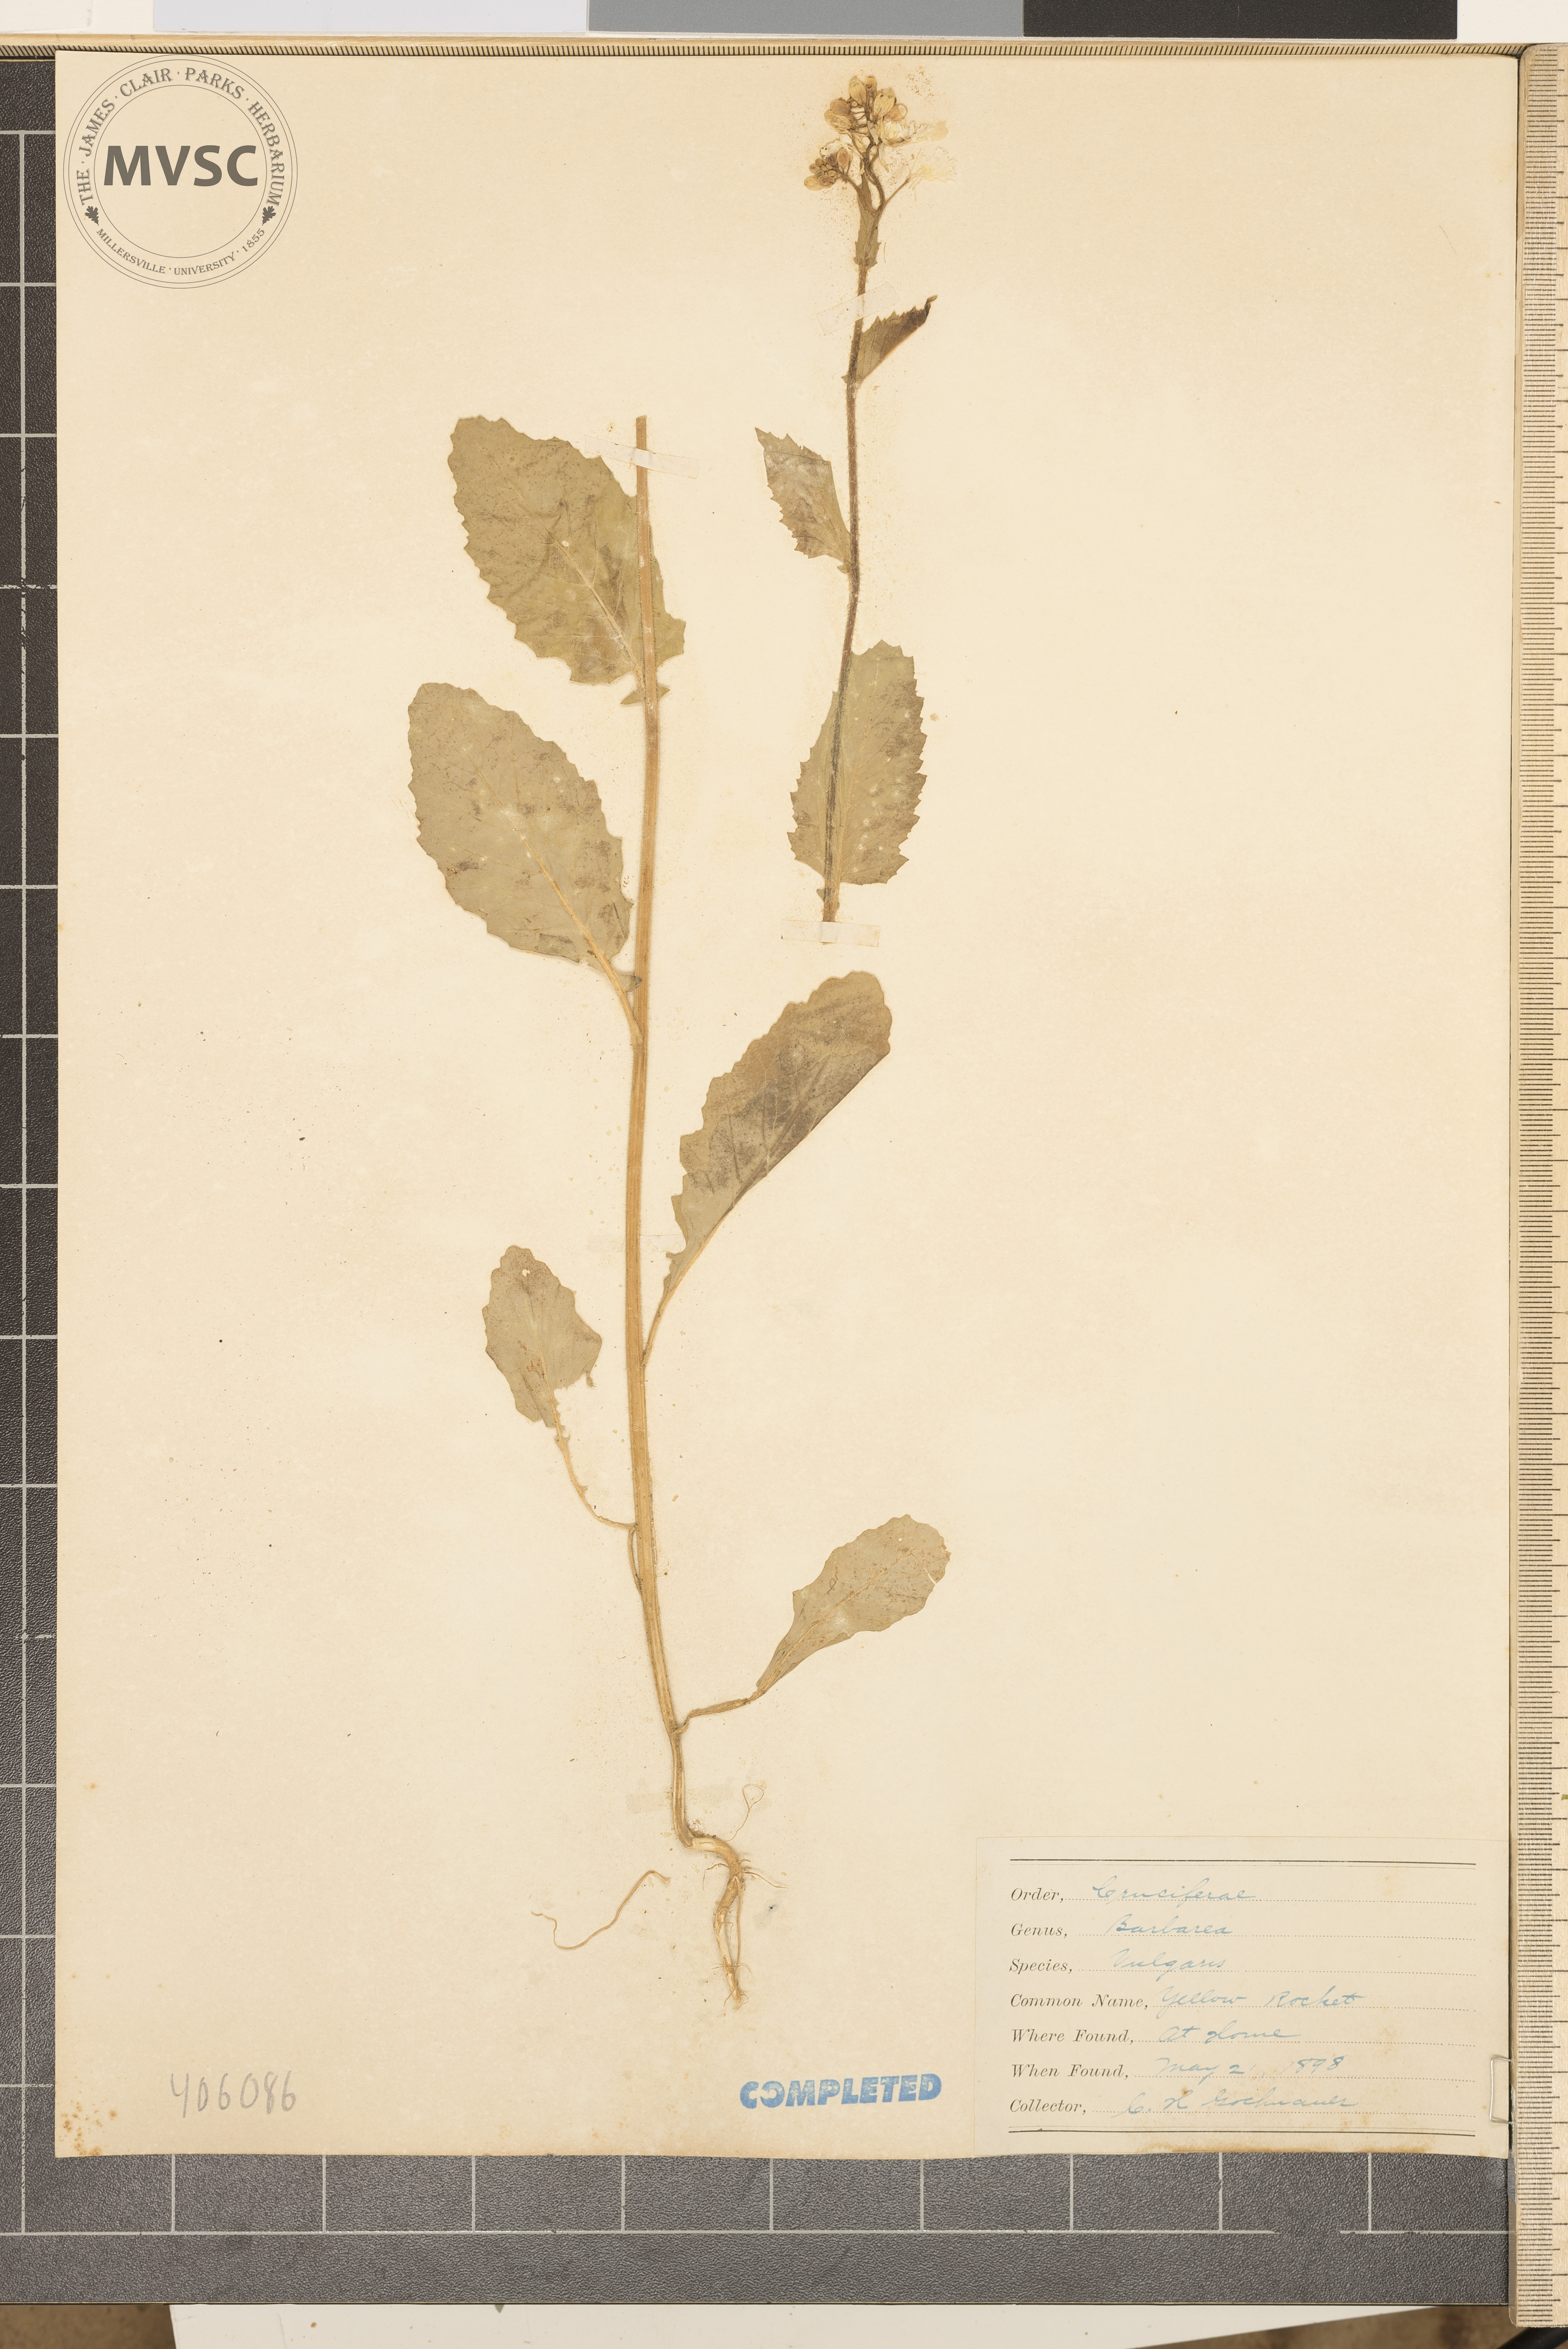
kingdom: Plantae
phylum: Tracheophyta
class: Magnoliopsida
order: Brassicales
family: Brassicaceae
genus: Barbarea
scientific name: Barbarea vulgaris
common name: Cressy-greens
